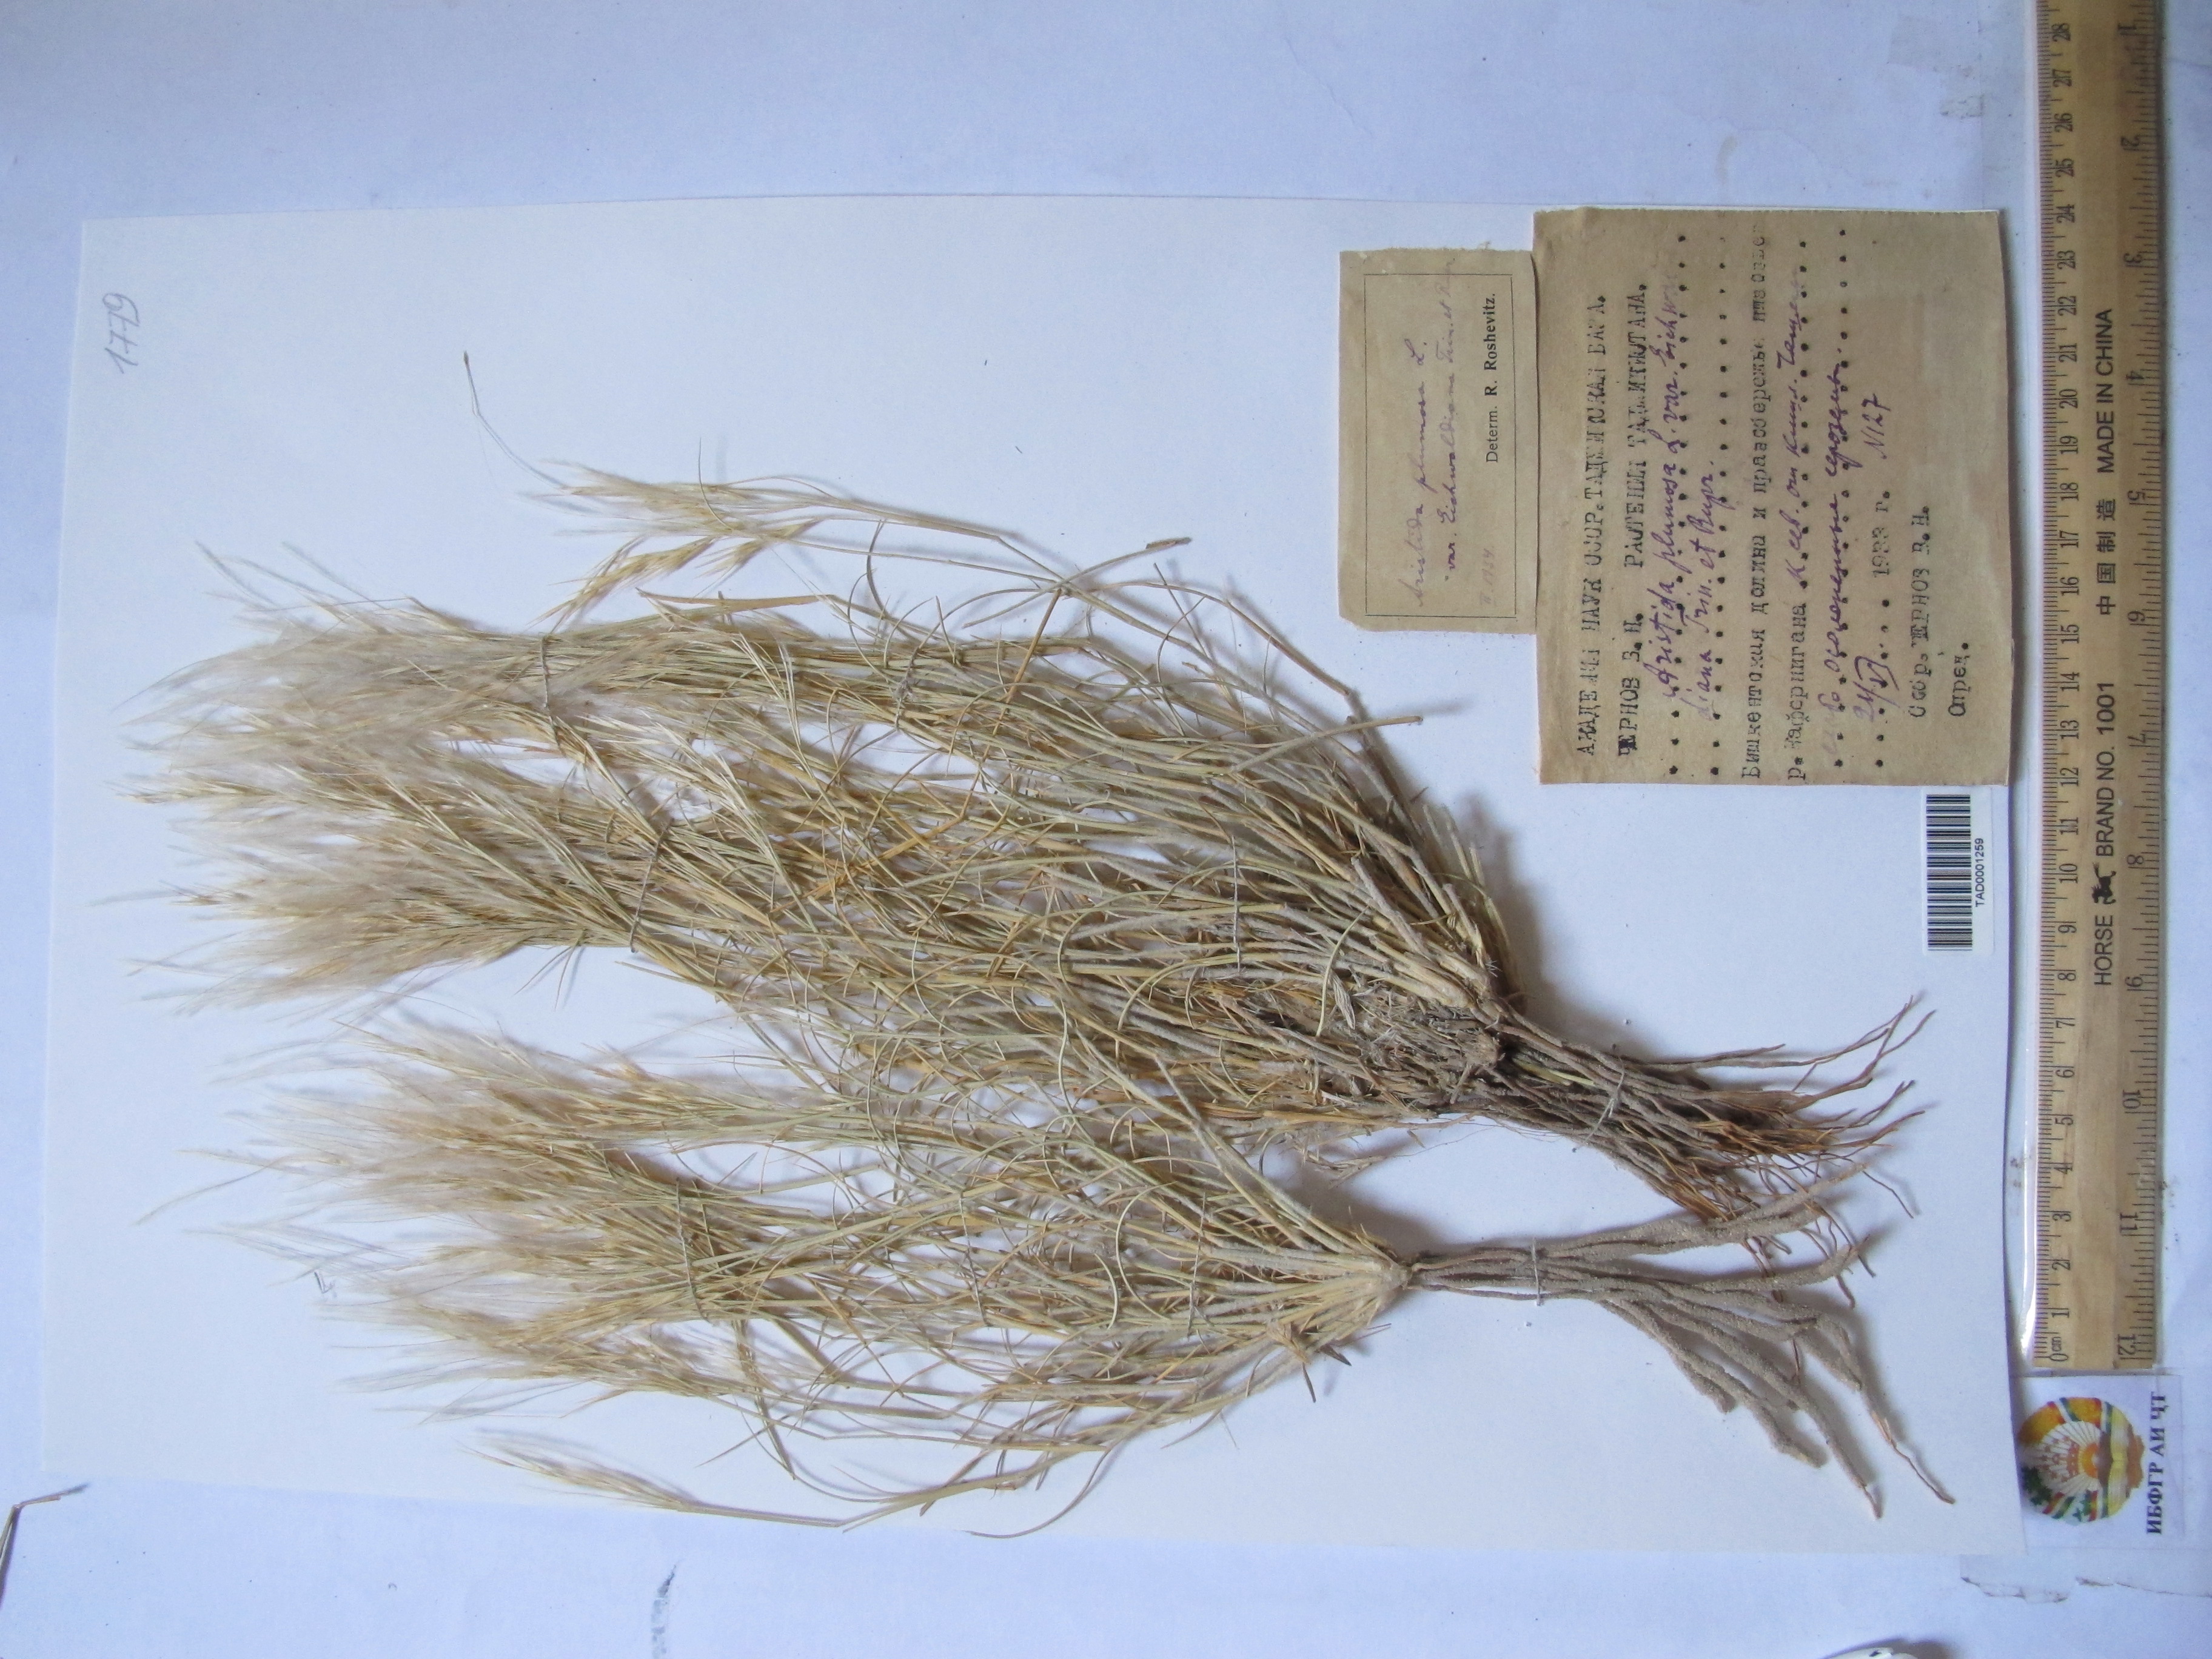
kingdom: Plantae
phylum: Tracheophyta
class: Liliopsida
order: Poales
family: Poaceae
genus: Stipagrostis
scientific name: Stipagrostis plumosa
